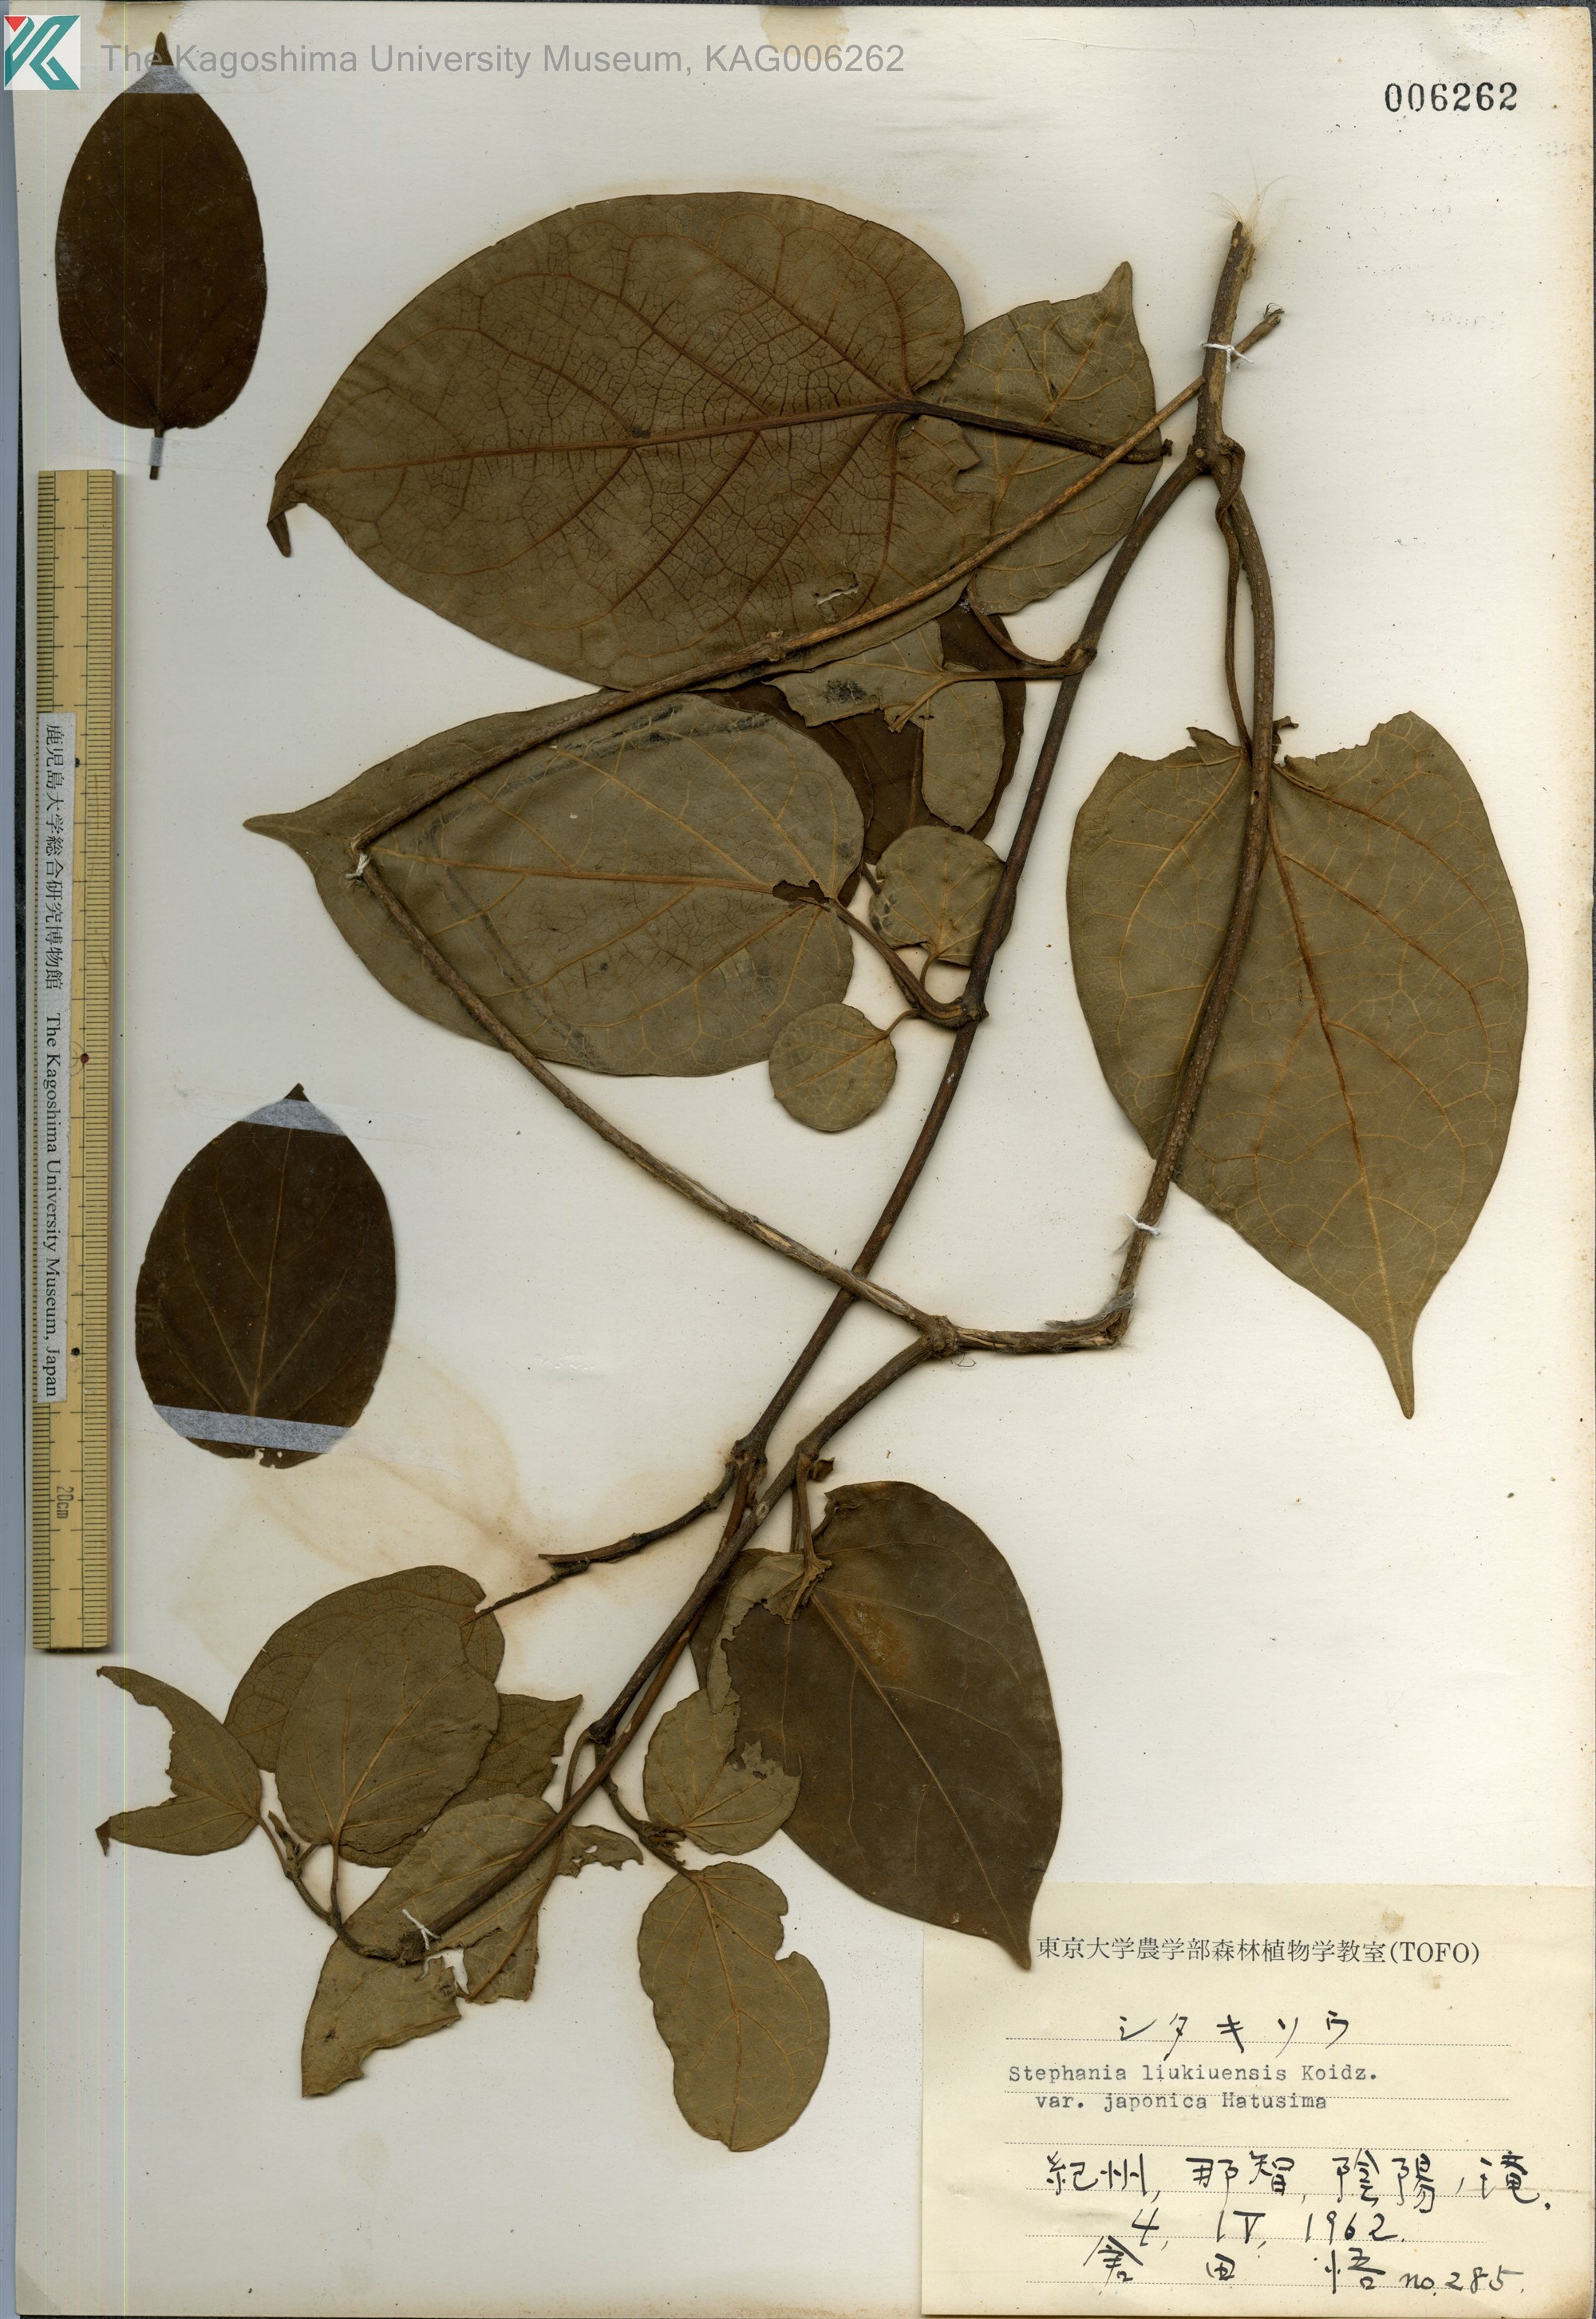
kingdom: Plantae
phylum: Tracheophyta
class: Magnoliopsida
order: Gentianales
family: Apocynaceae
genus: Jasminanthes
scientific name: Jasminanthes mucronata
